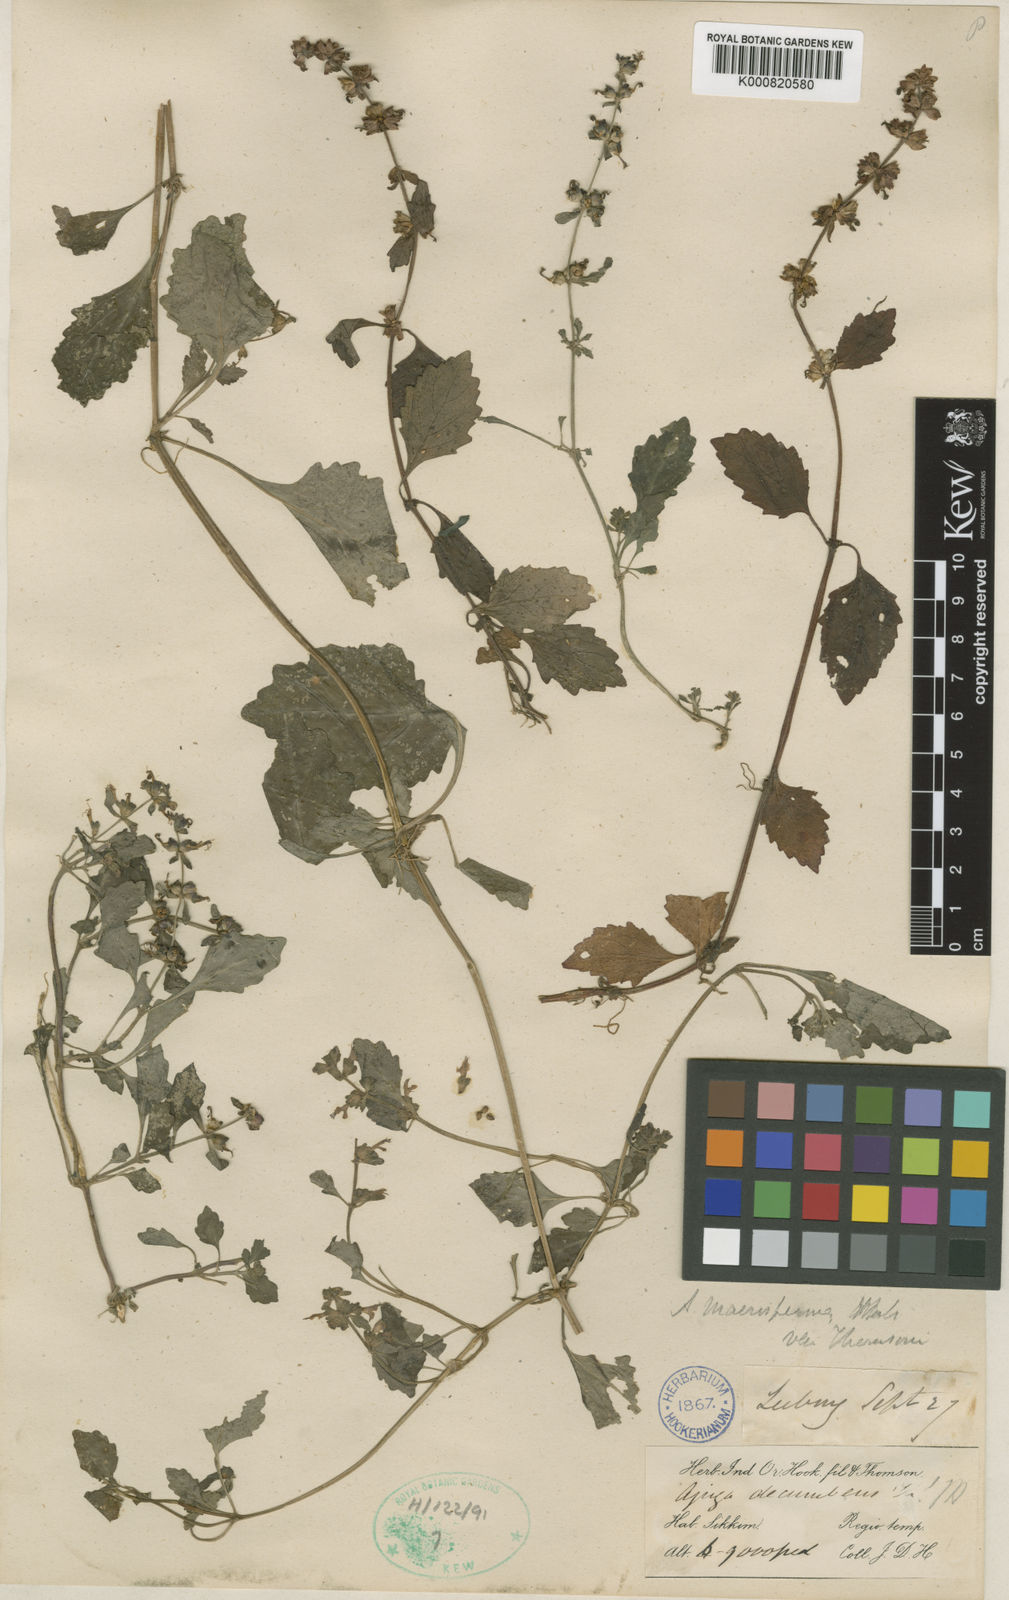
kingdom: Plantae
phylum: Tracheophyta
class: Magnoliopsida
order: Lamiales
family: Lamiaceae
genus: Ajuga
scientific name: Ajuga macrosperma
